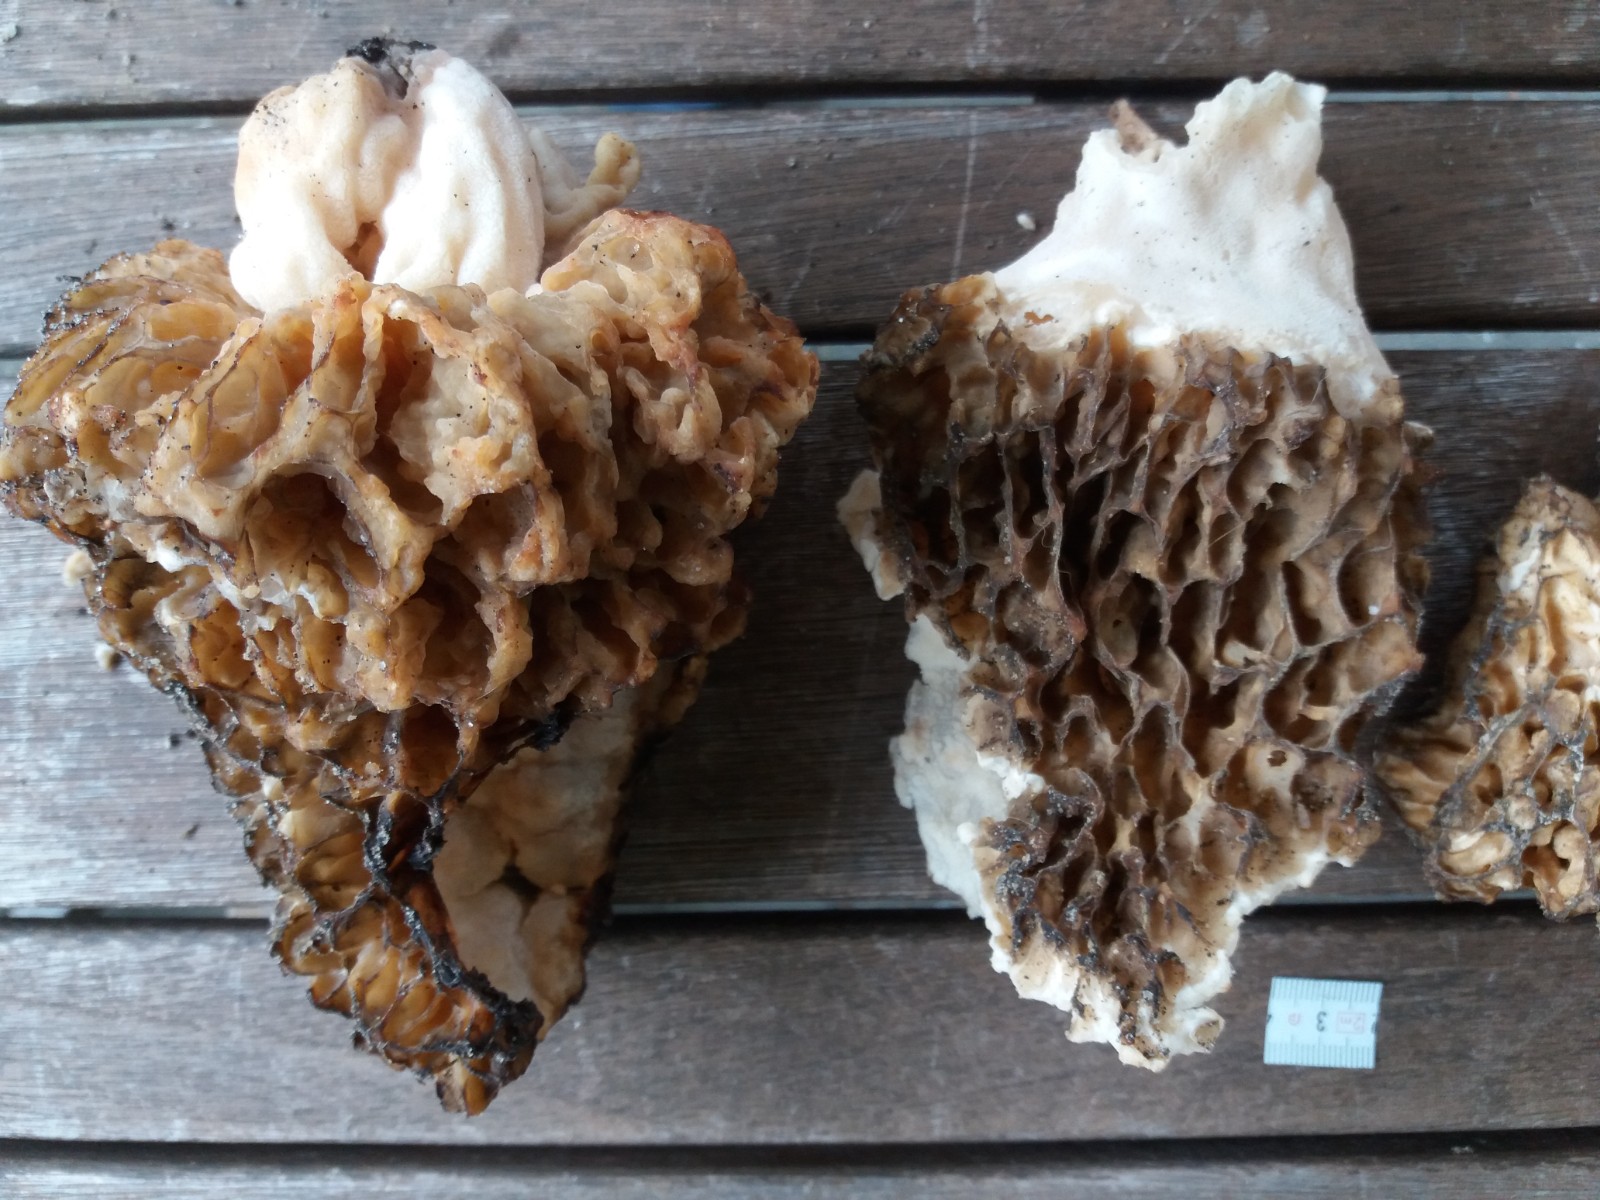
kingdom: Fungi
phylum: Ascomycota
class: Pezizomycetes
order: Pezizales
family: Morchellaceae
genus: Morchella
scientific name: Morchella
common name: morkel
